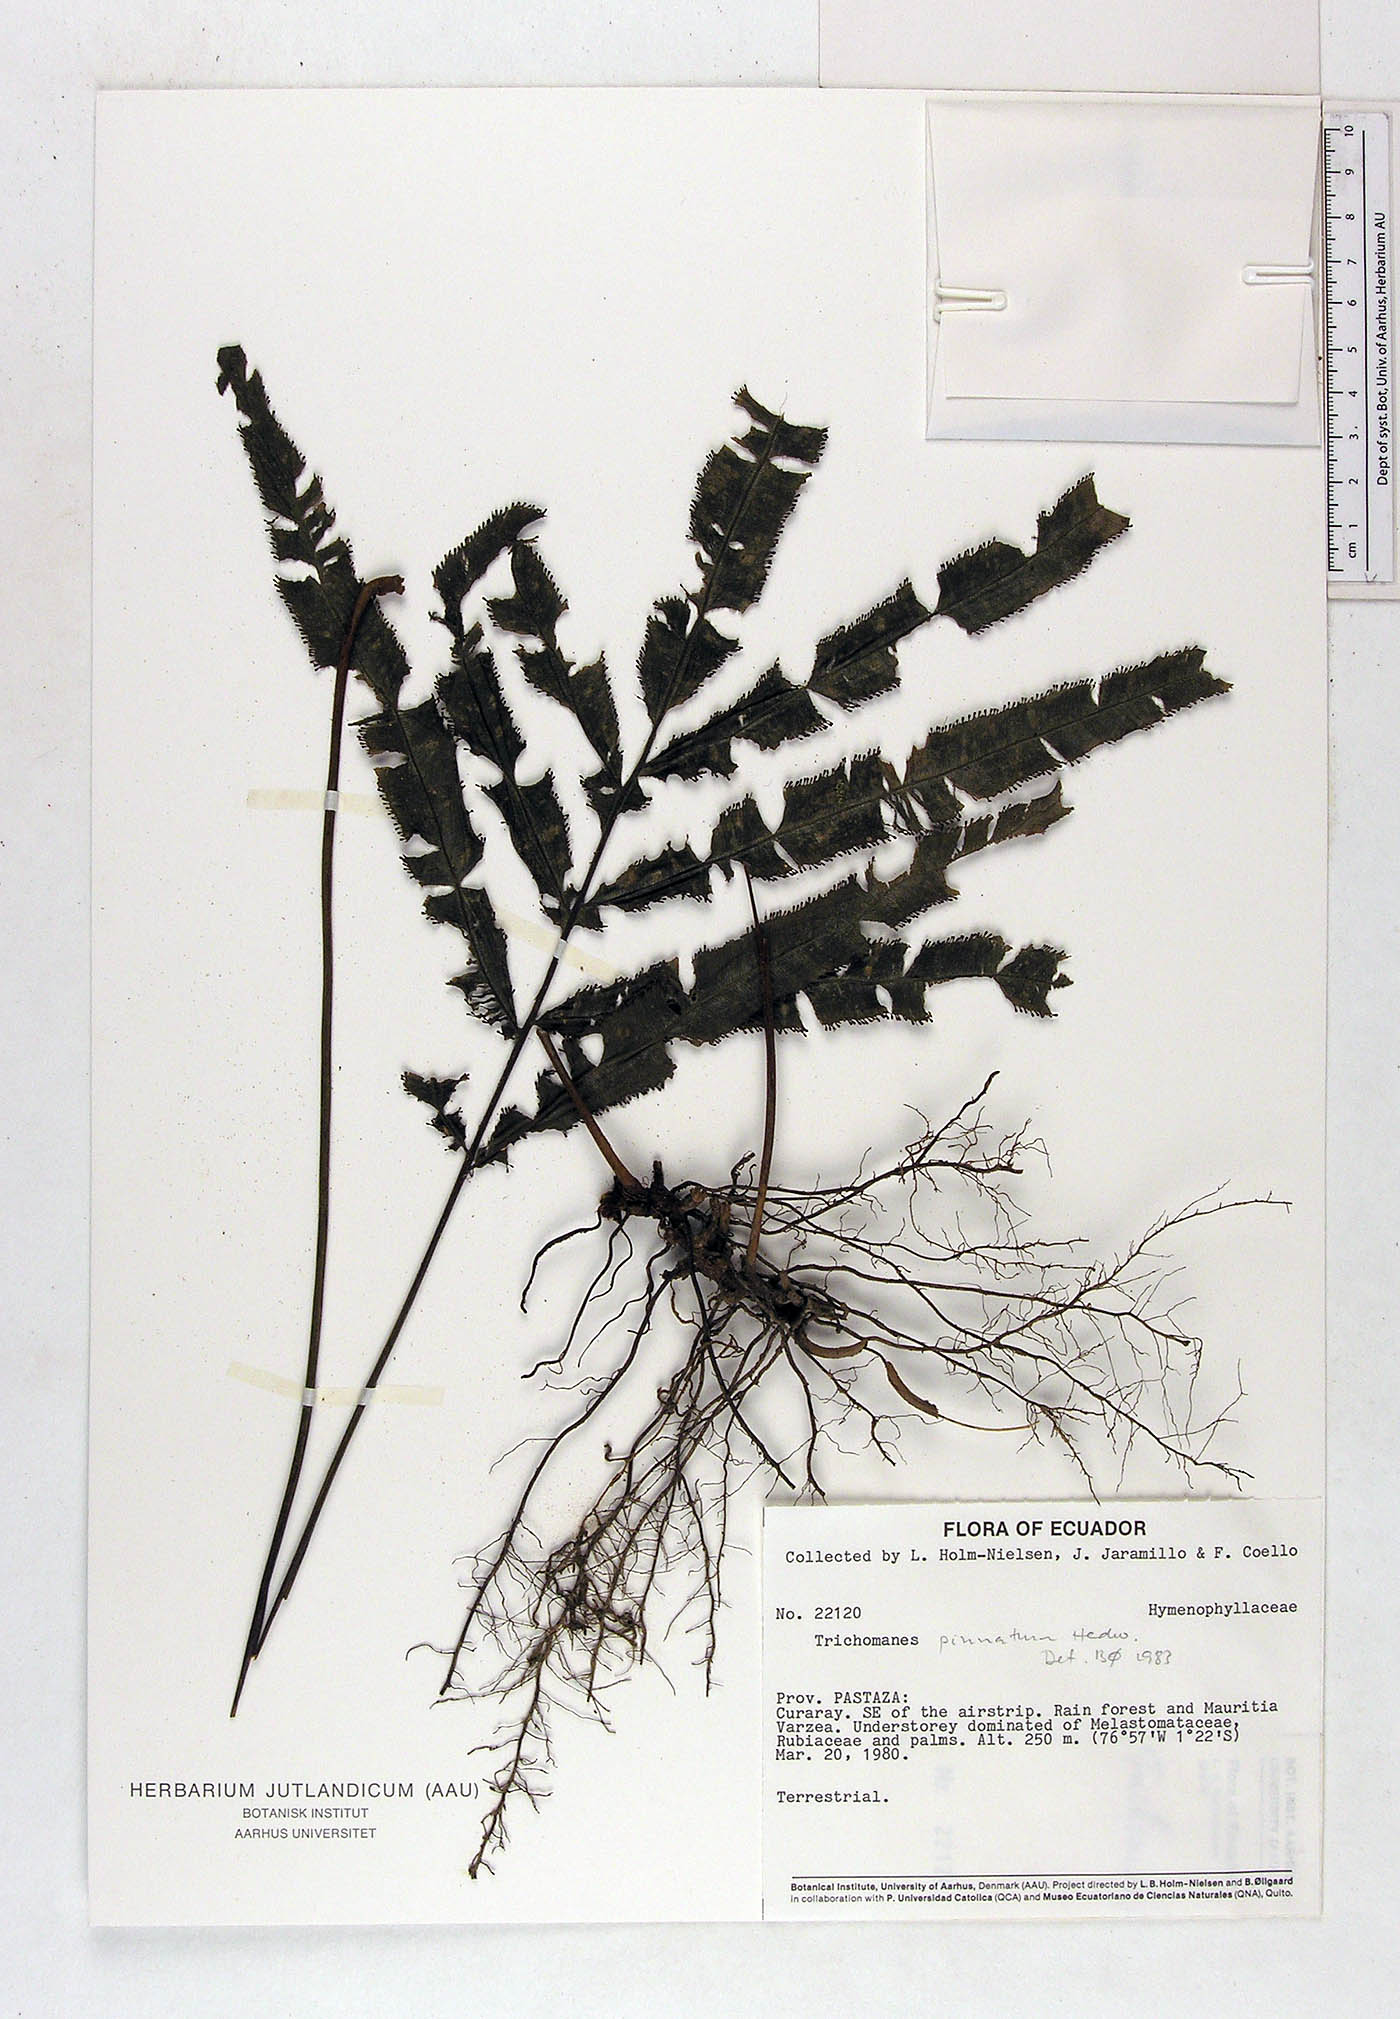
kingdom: Plantae
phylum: Tracheophyta
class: Polypodiopsida
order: Hymenophyllales
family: Hymenophyllaceae
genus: Trichomanes
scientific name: Trichomanes pinnatum
